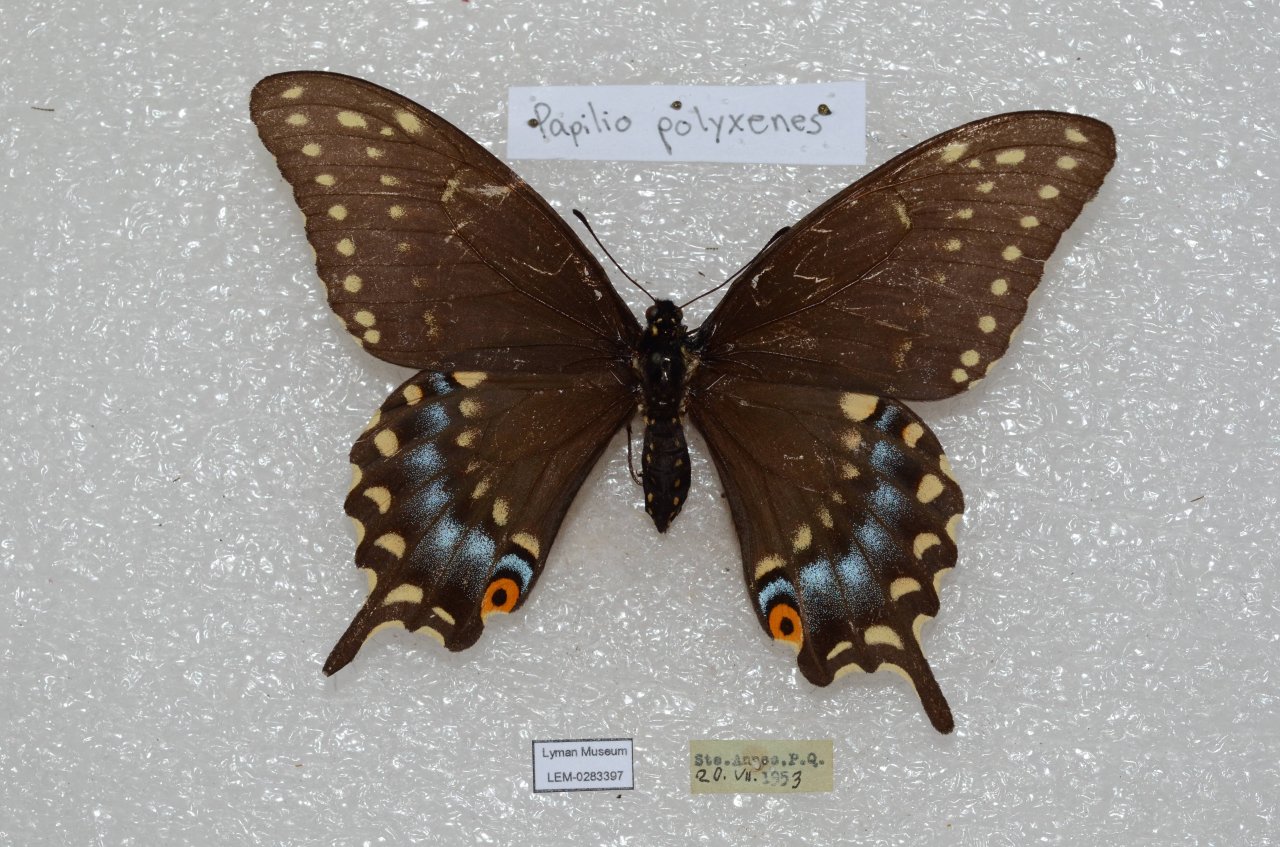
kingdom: Animalia
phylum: Arthropoda
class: Insecta
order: Lepidoptera
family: Papilionidae
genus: Papilio
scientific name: Papilio polyxenes
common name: Black Swallowtail
